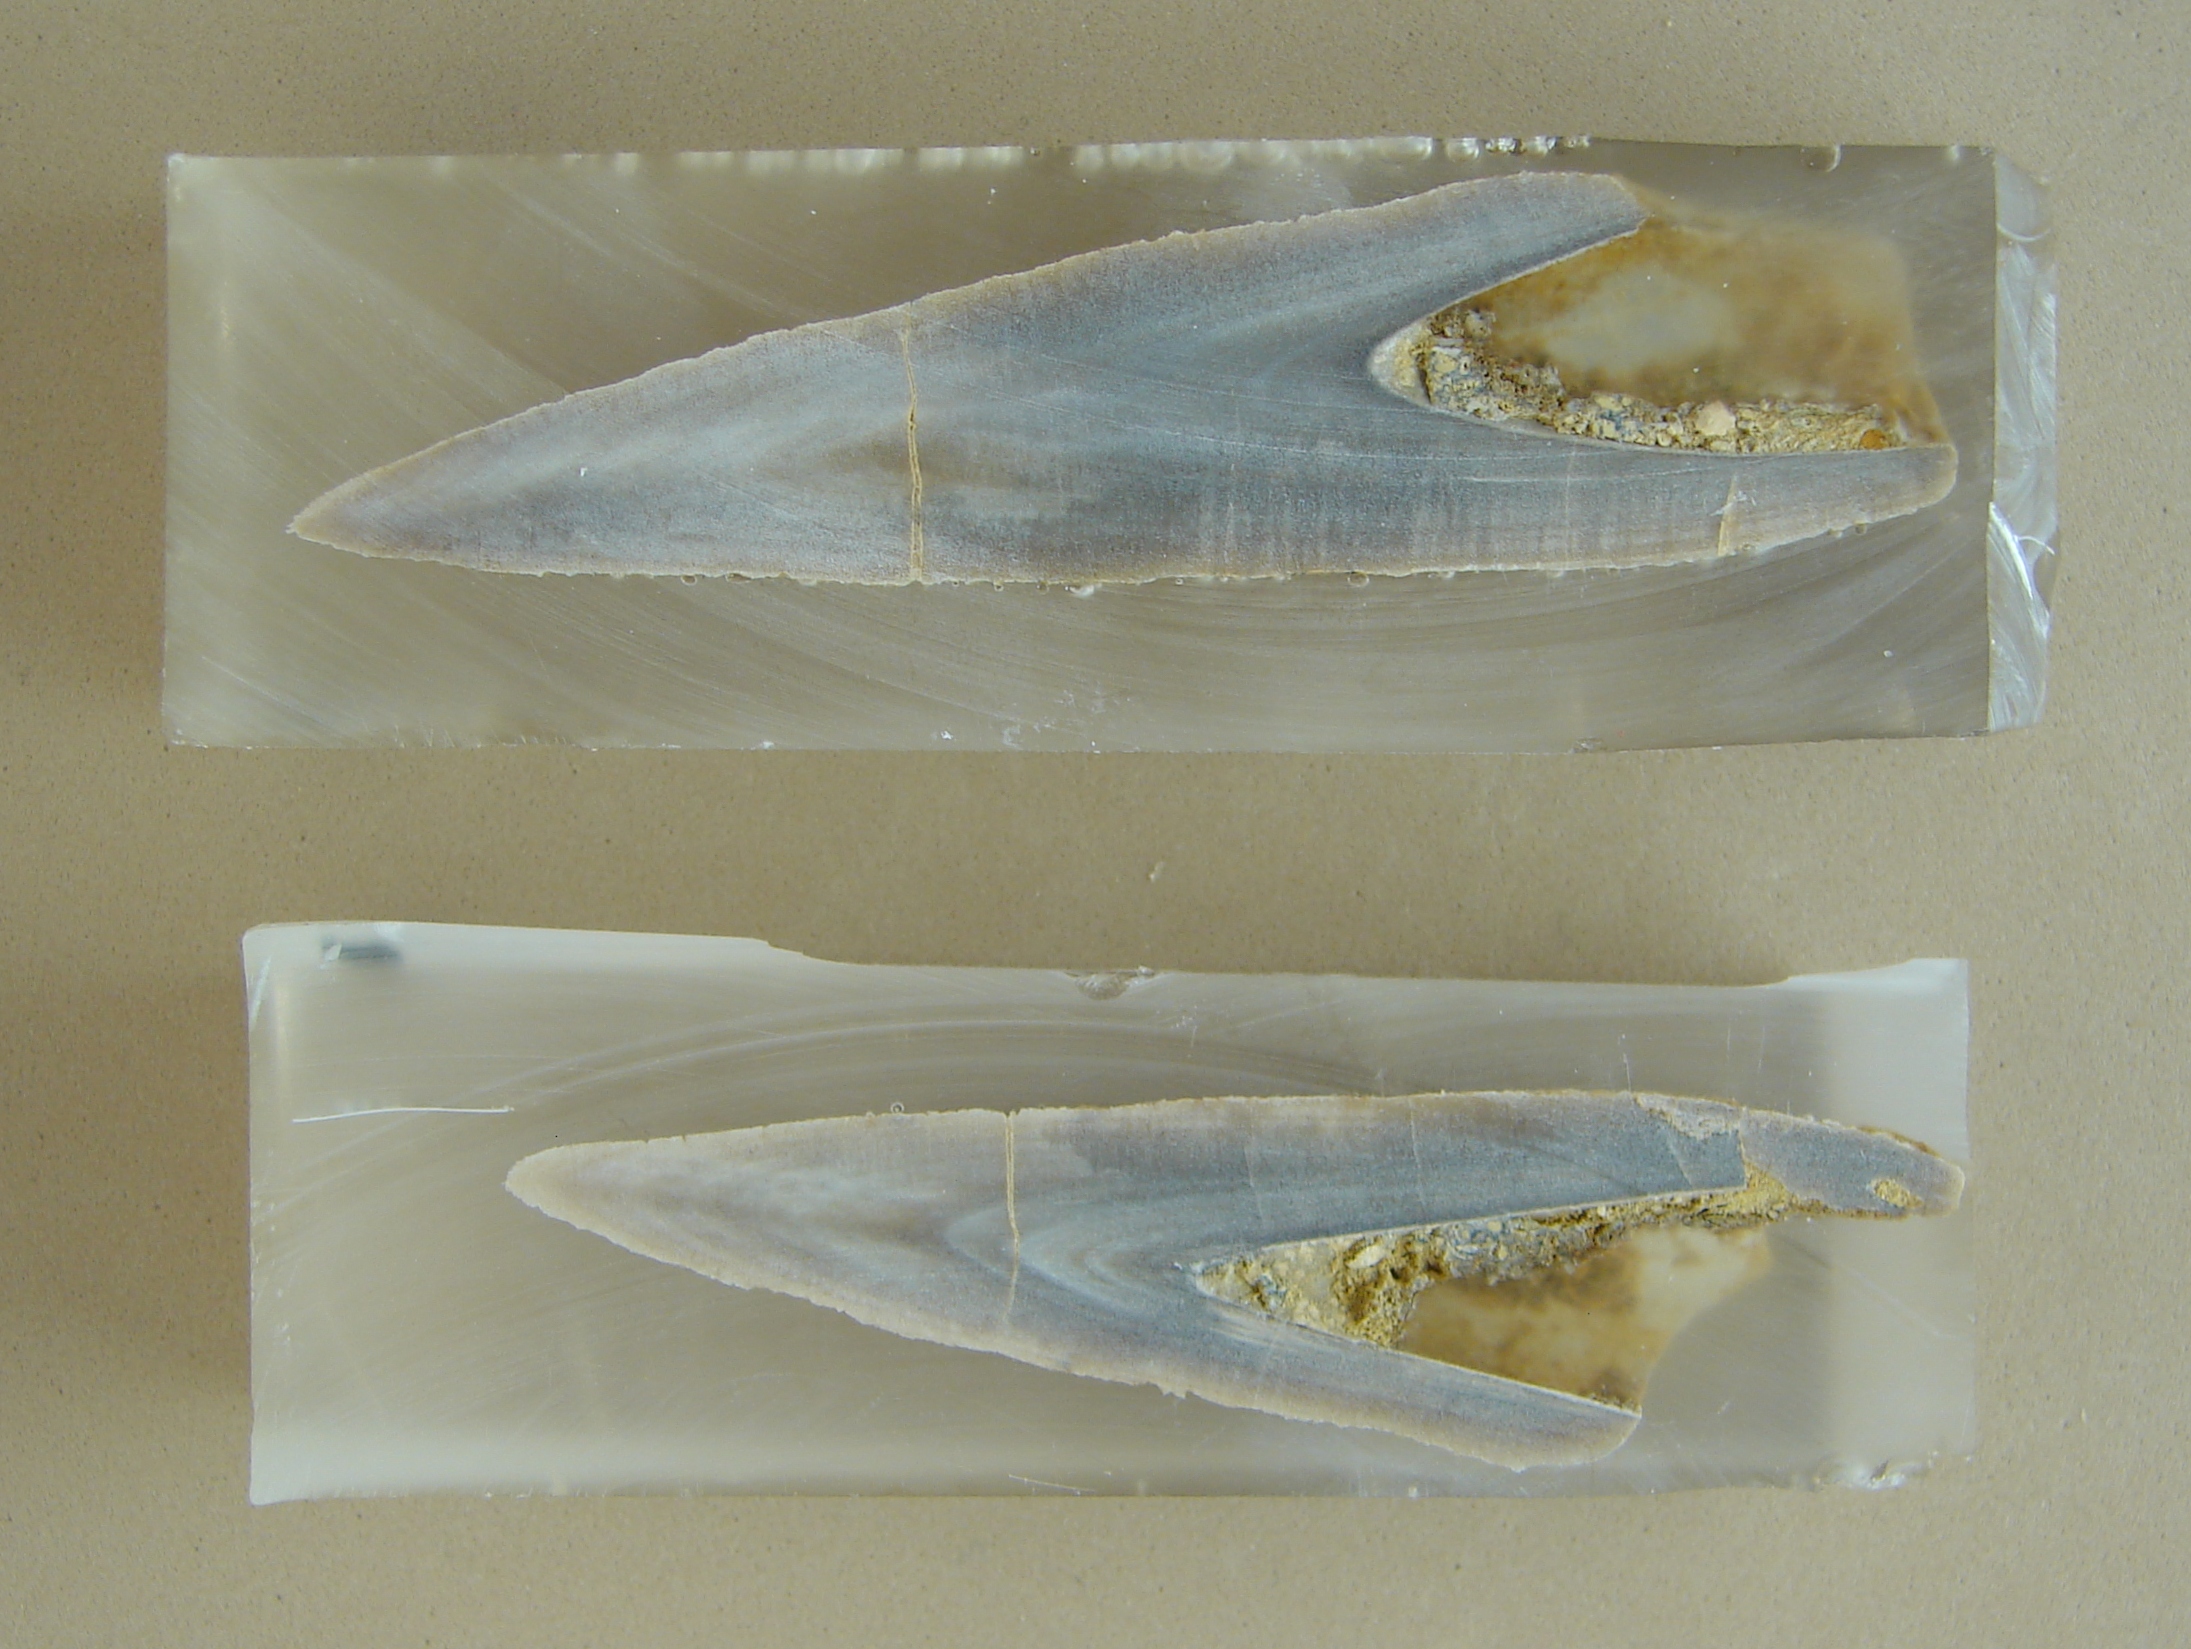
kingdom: Animalia
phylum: Mollusca
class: Cephalopoda
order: Belemnitida
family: Megateuthididae
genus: Megateuthis
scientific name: Megateuthis
